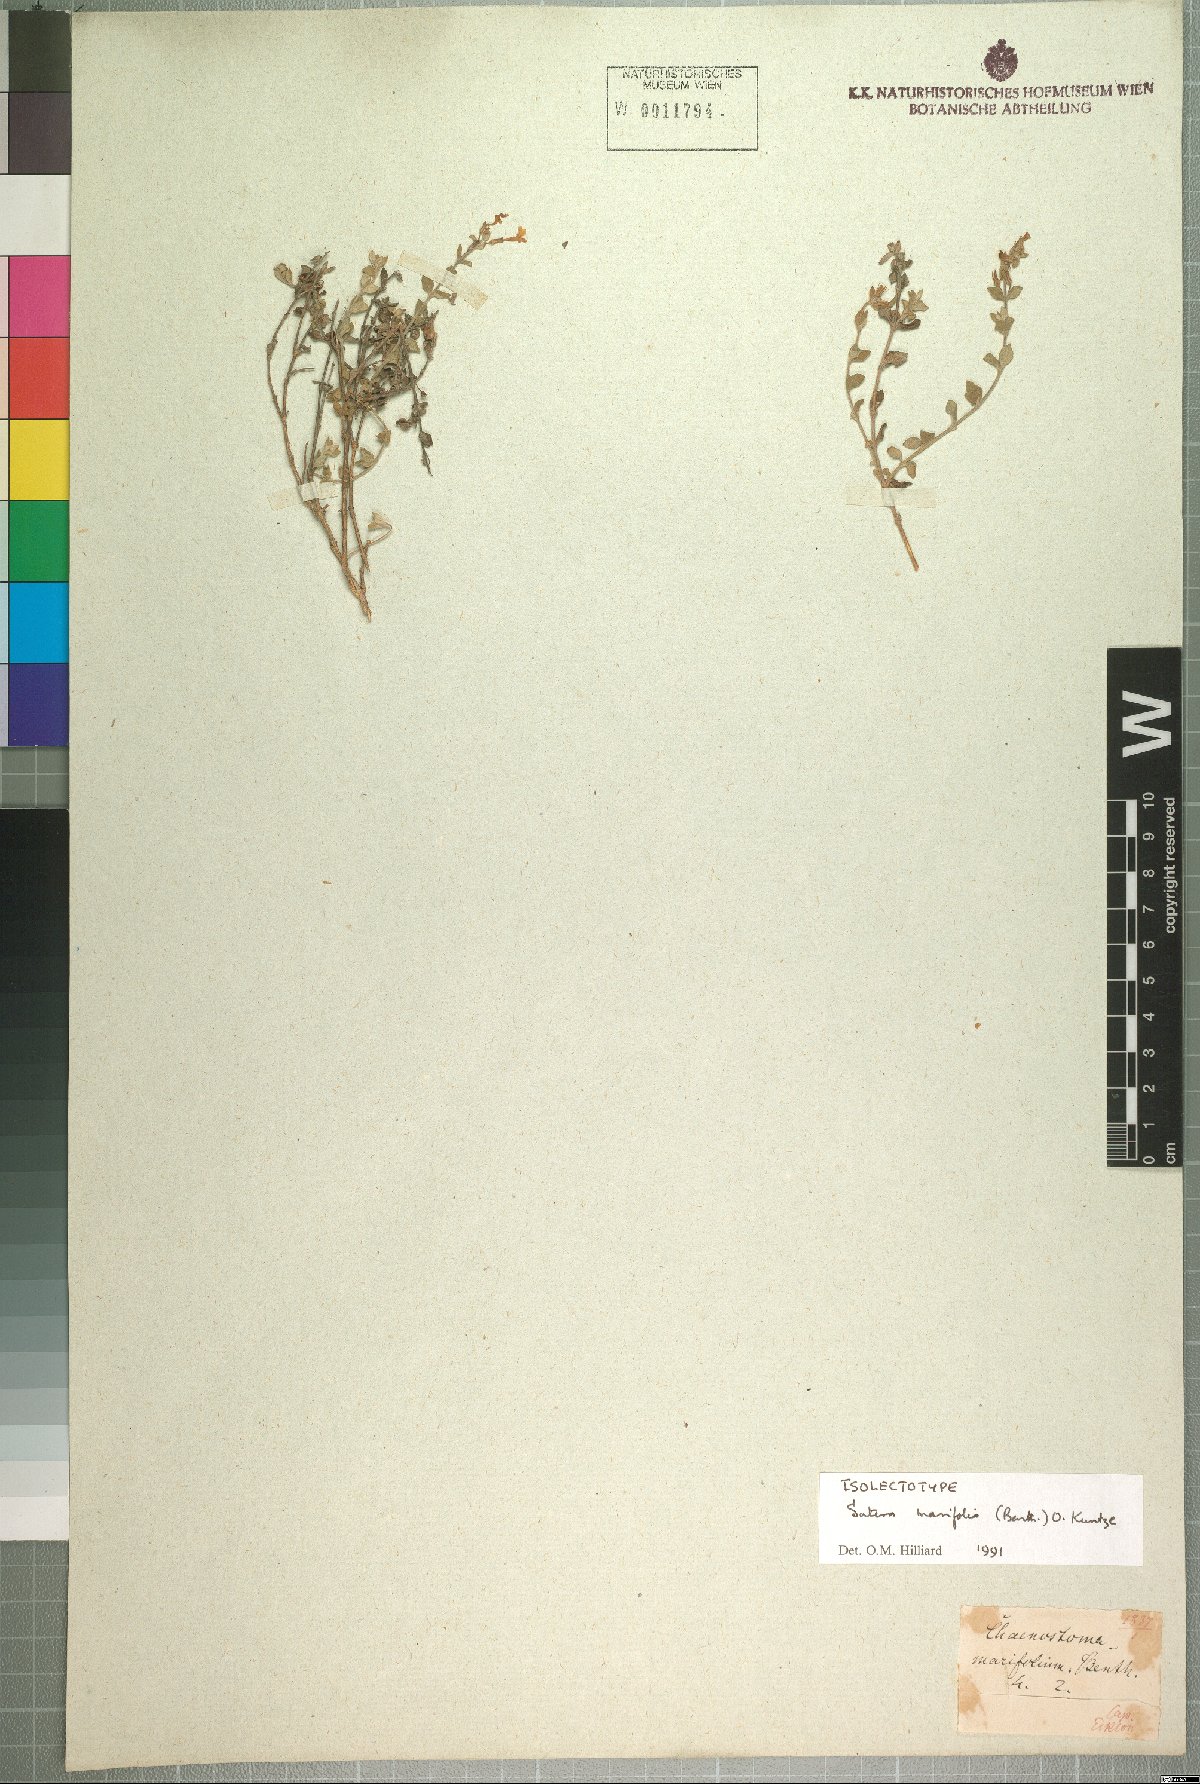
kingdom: Plantae
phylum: Tracheophyta
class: Magnoliopsida
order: Lamiales
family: Scrophulariaceae
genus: Chaenostoma
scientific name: Chaenostoma marifolium
